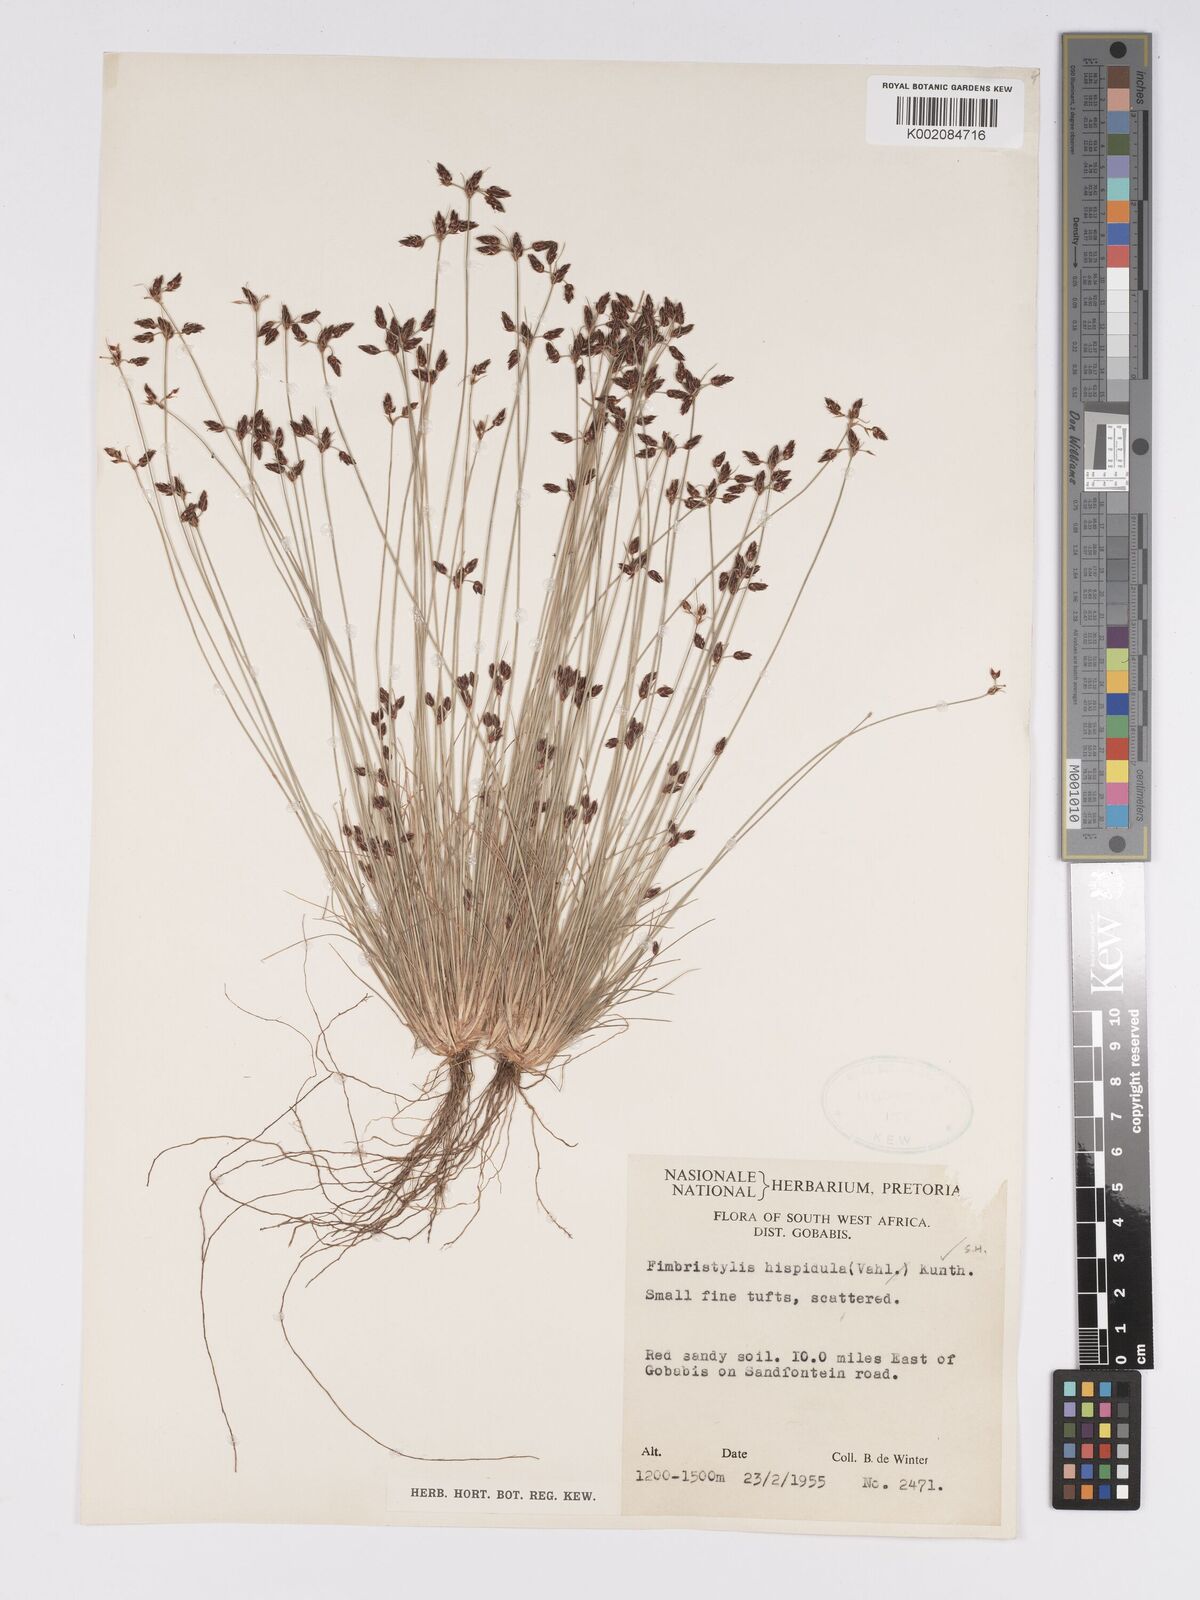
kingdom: Plantae
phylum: Tracheophyta
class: Liliopsida
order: Poales
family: Cyperaceae
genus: Bulbostylis
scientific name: Bulbostylis hispidula
